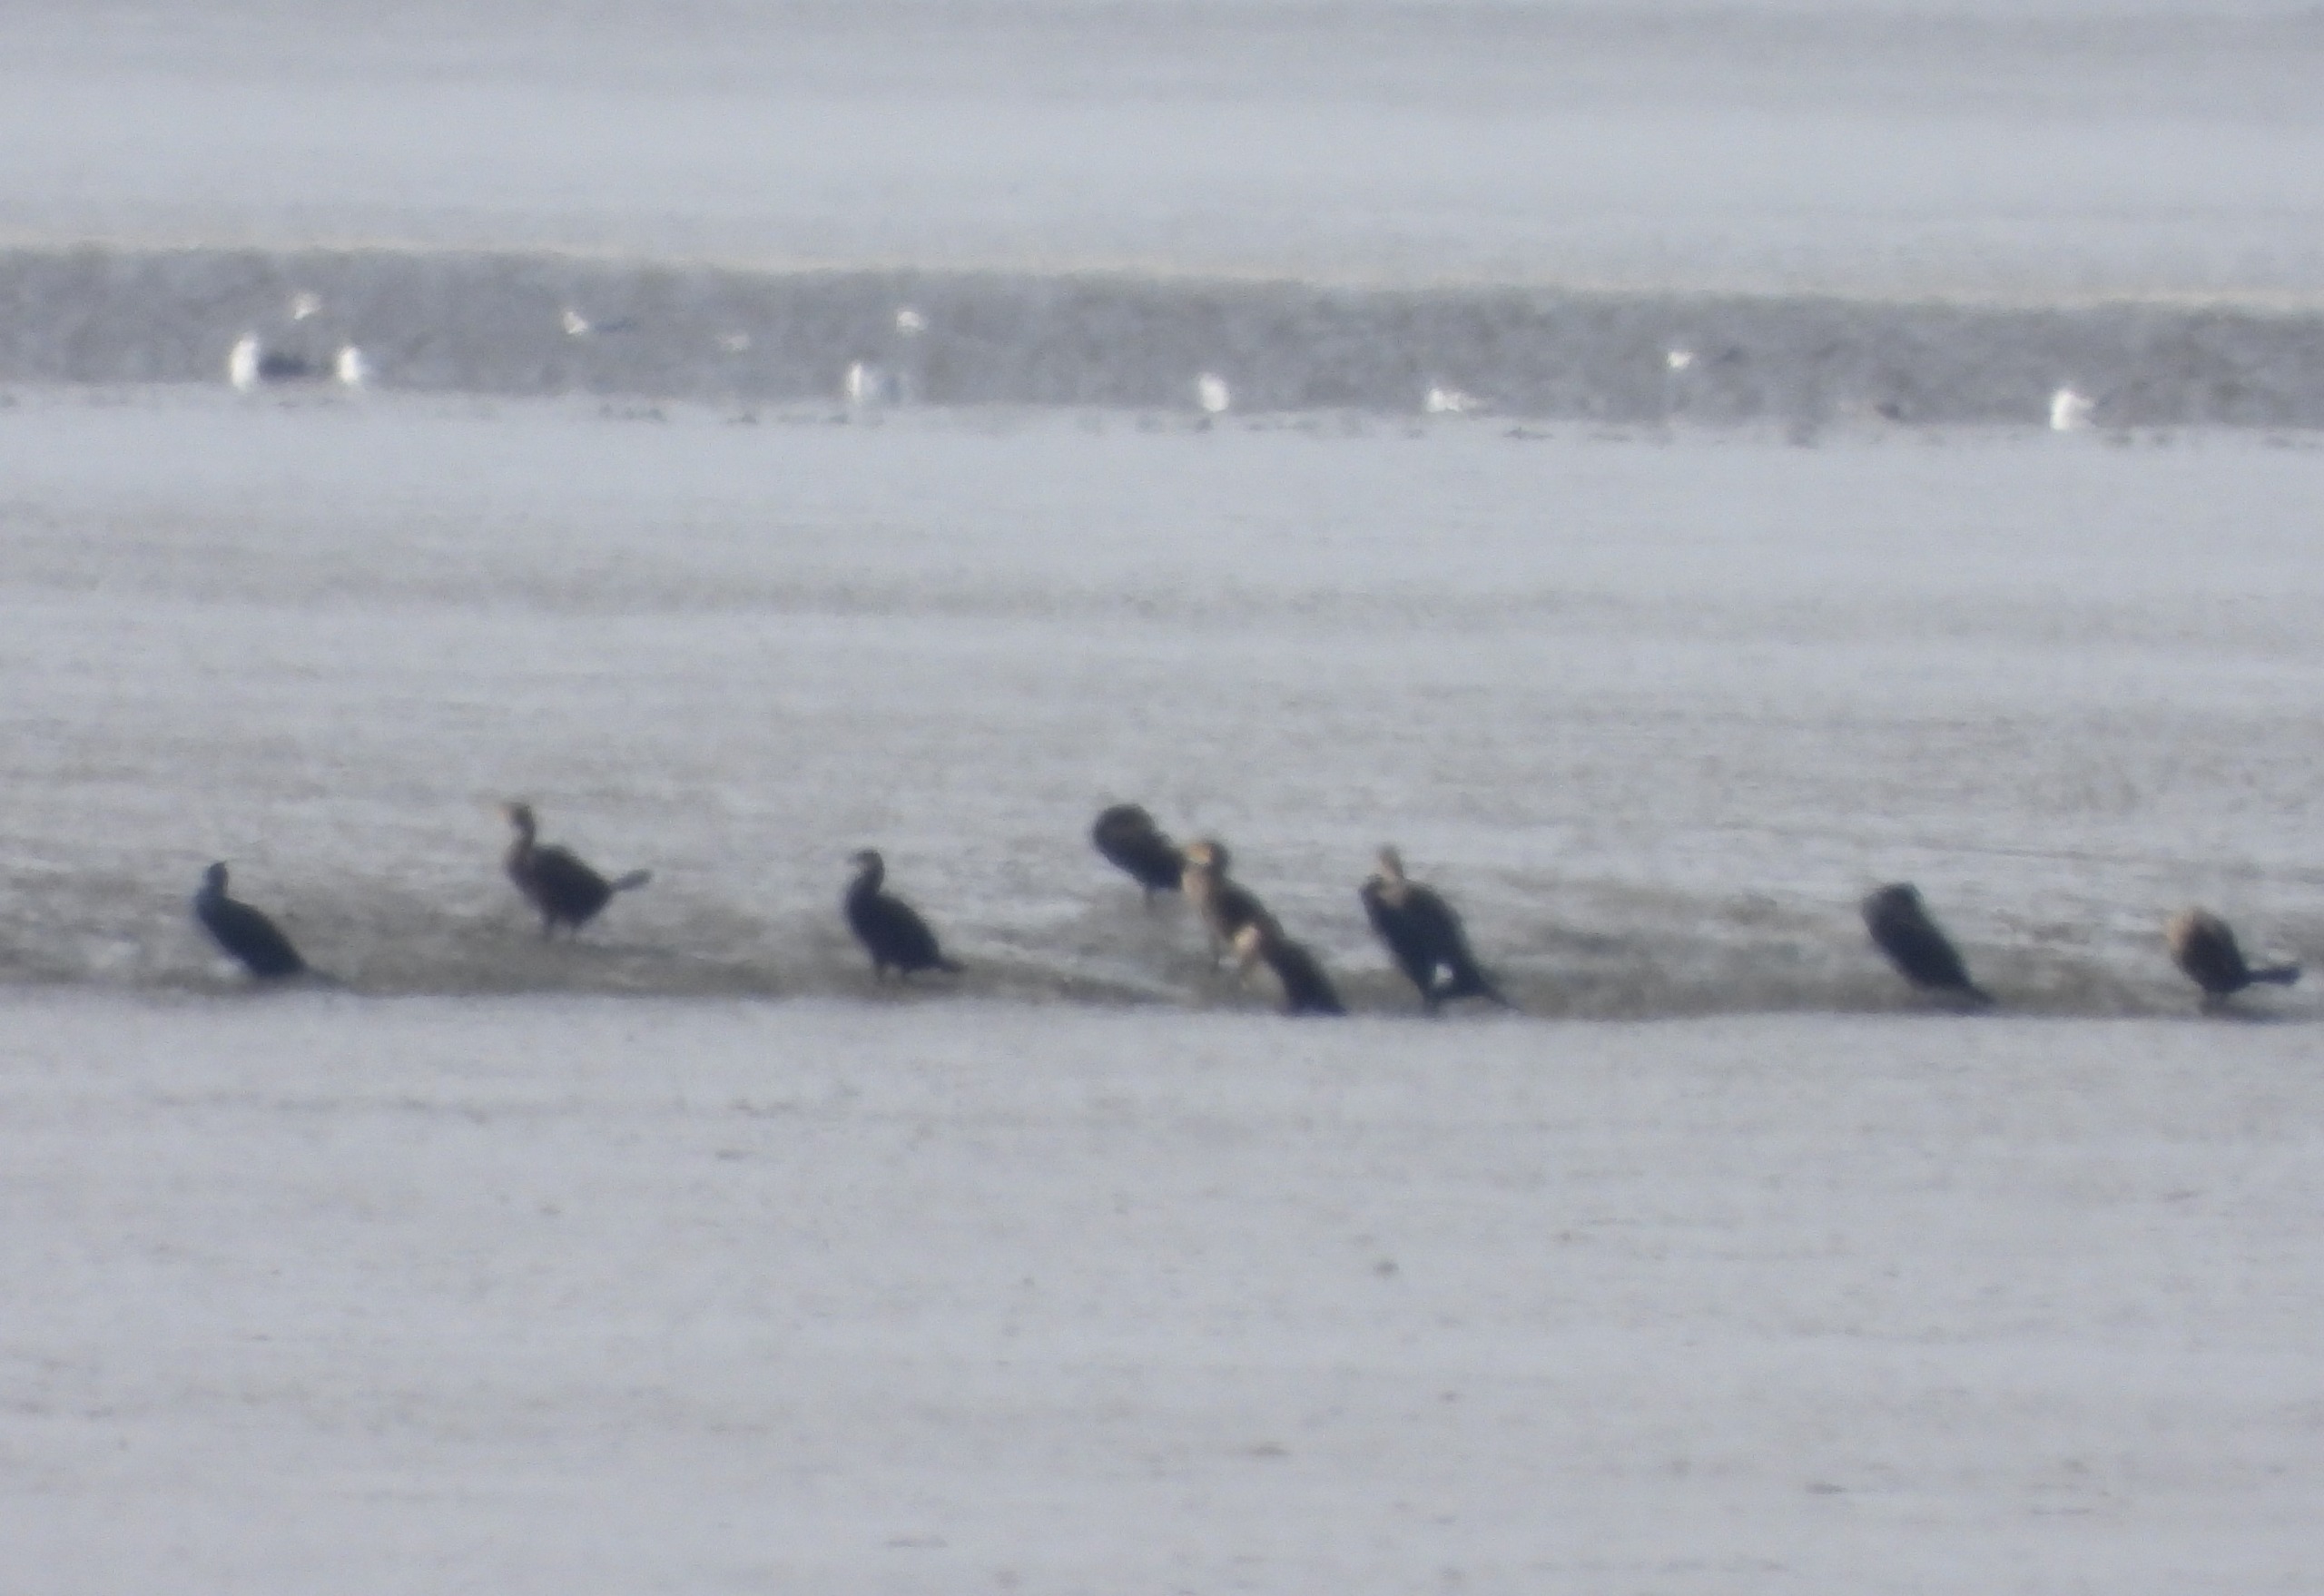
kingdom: Animalia
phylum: Chordata
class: Aves
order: Suliformes
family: Phalacrocoracidae
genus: Phalacrocorax
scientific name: Phalacrocorax carbo
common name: Skarv
